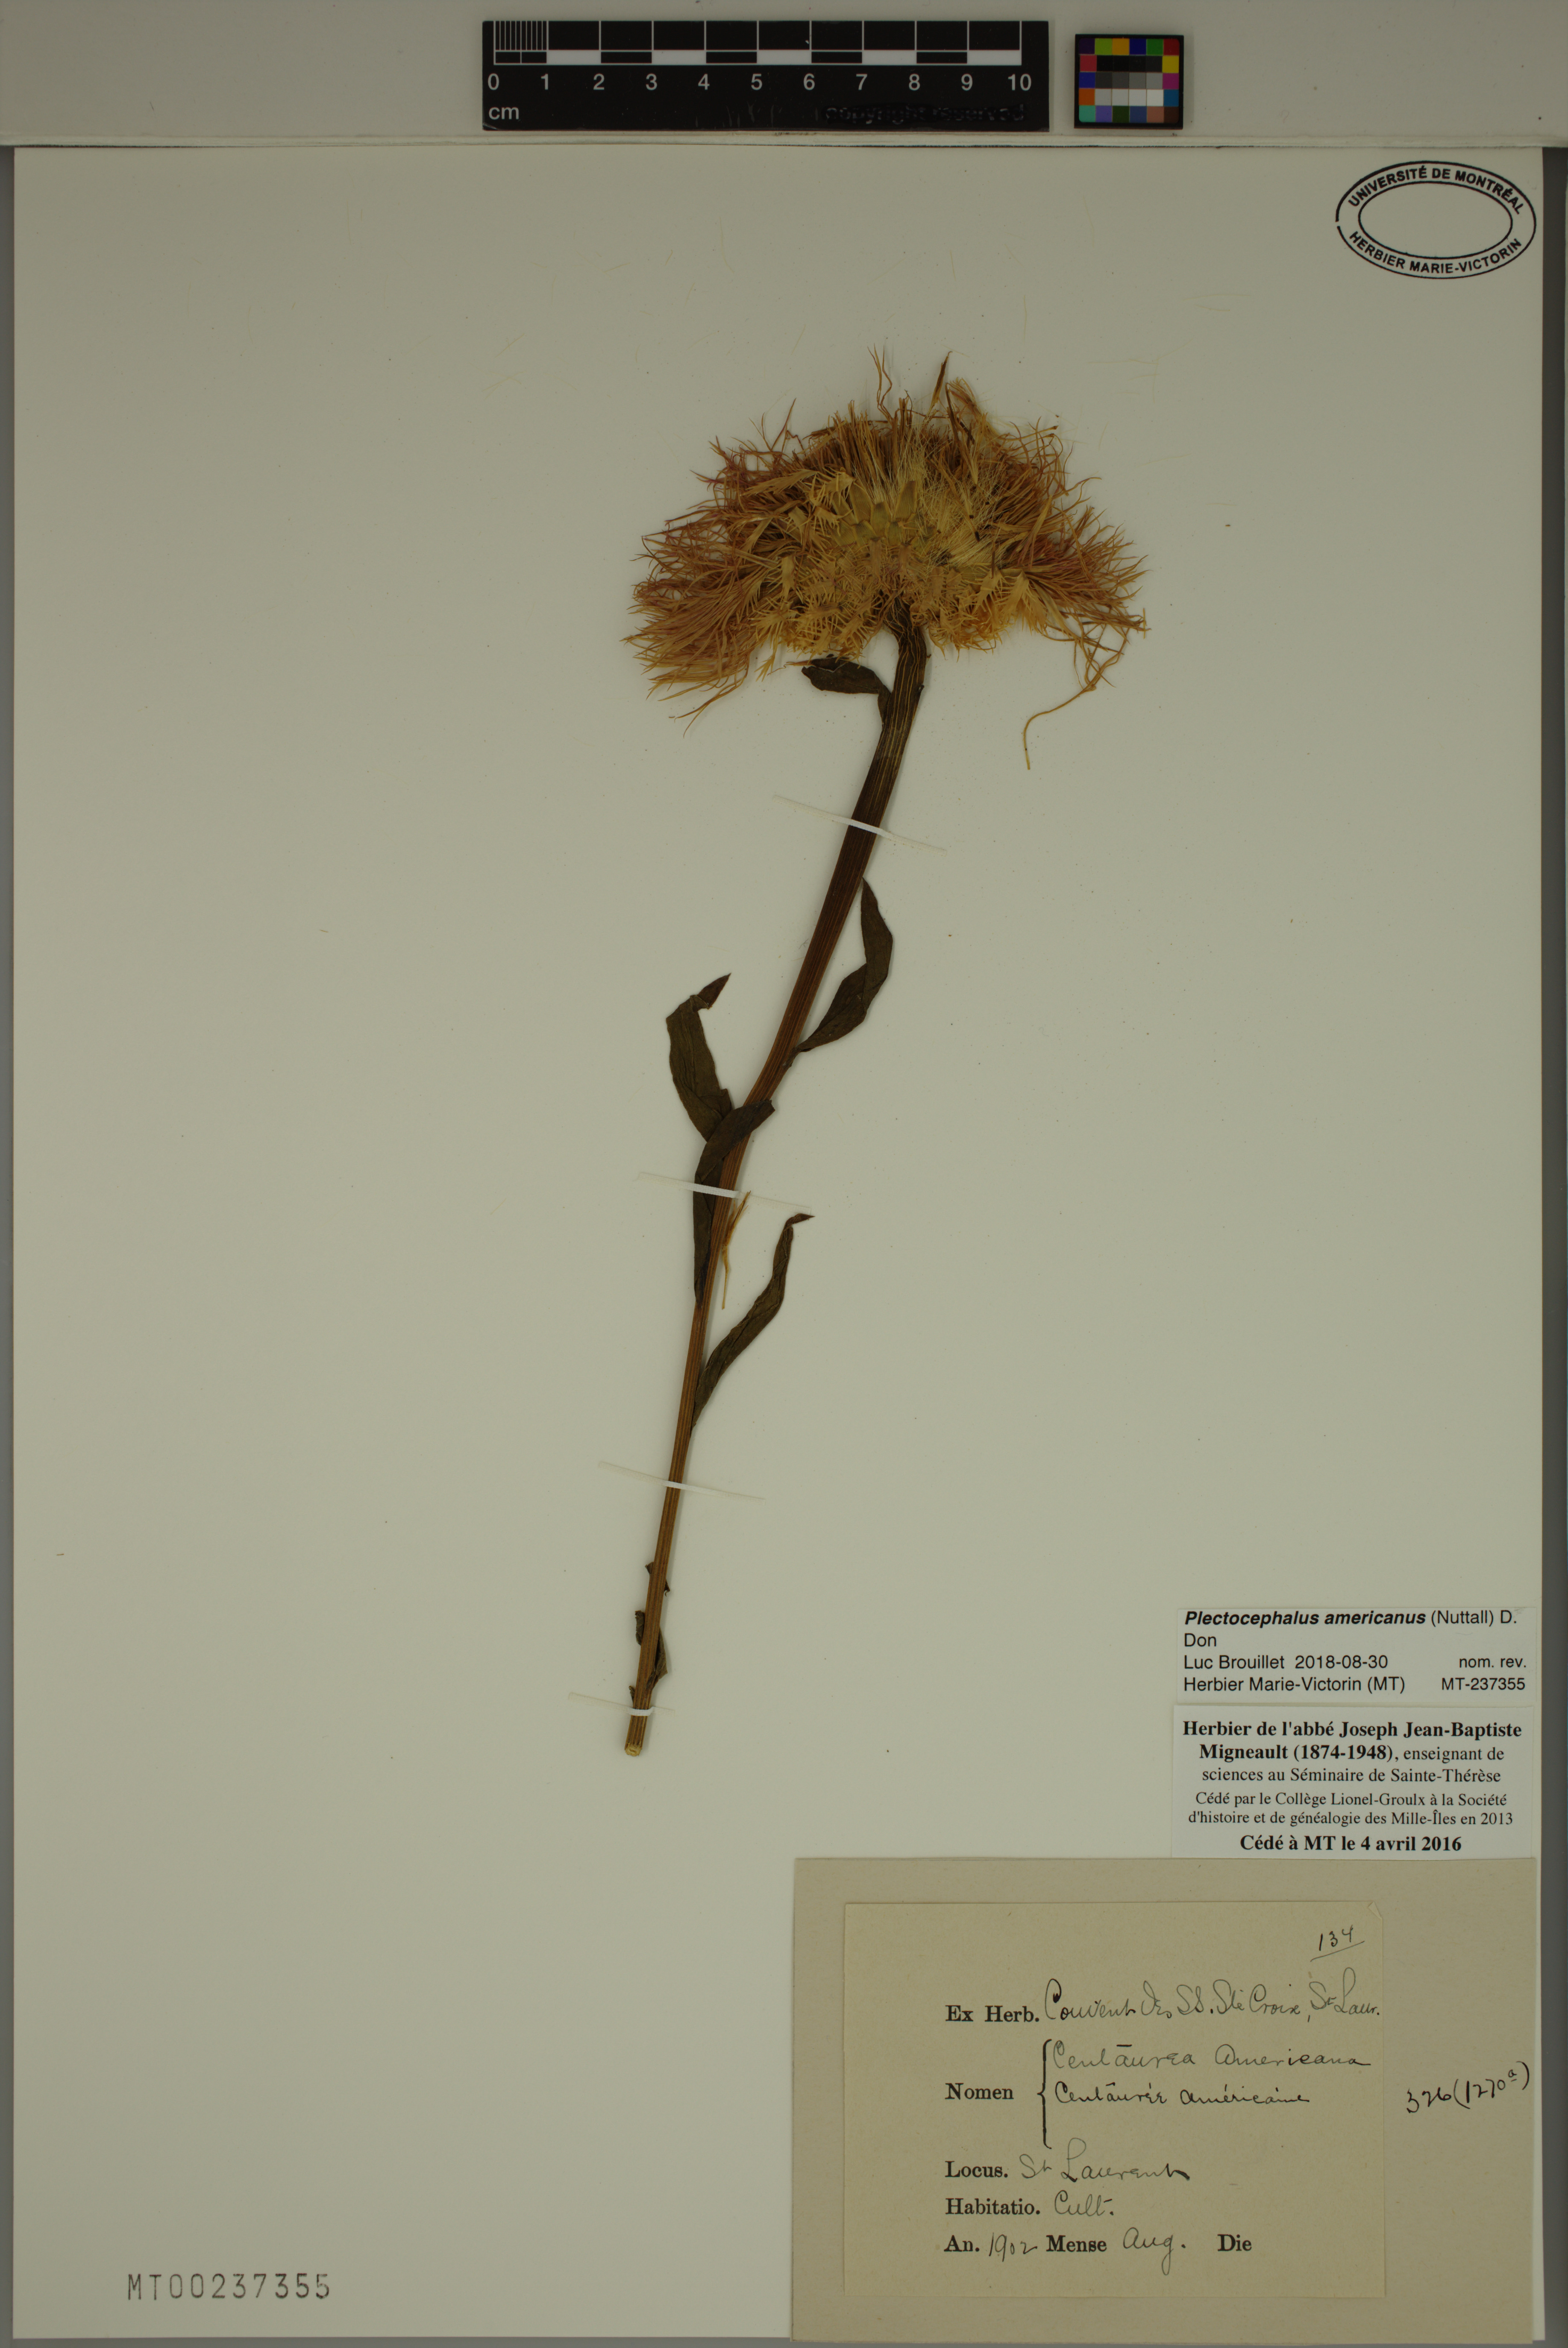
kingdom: Plantae
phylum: Tracheophyta
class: Magnoliopsida
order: Asterales
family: Asteraceae
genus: Plectocephalus
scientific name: Plectocephalus americanus
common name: American basket-flower
